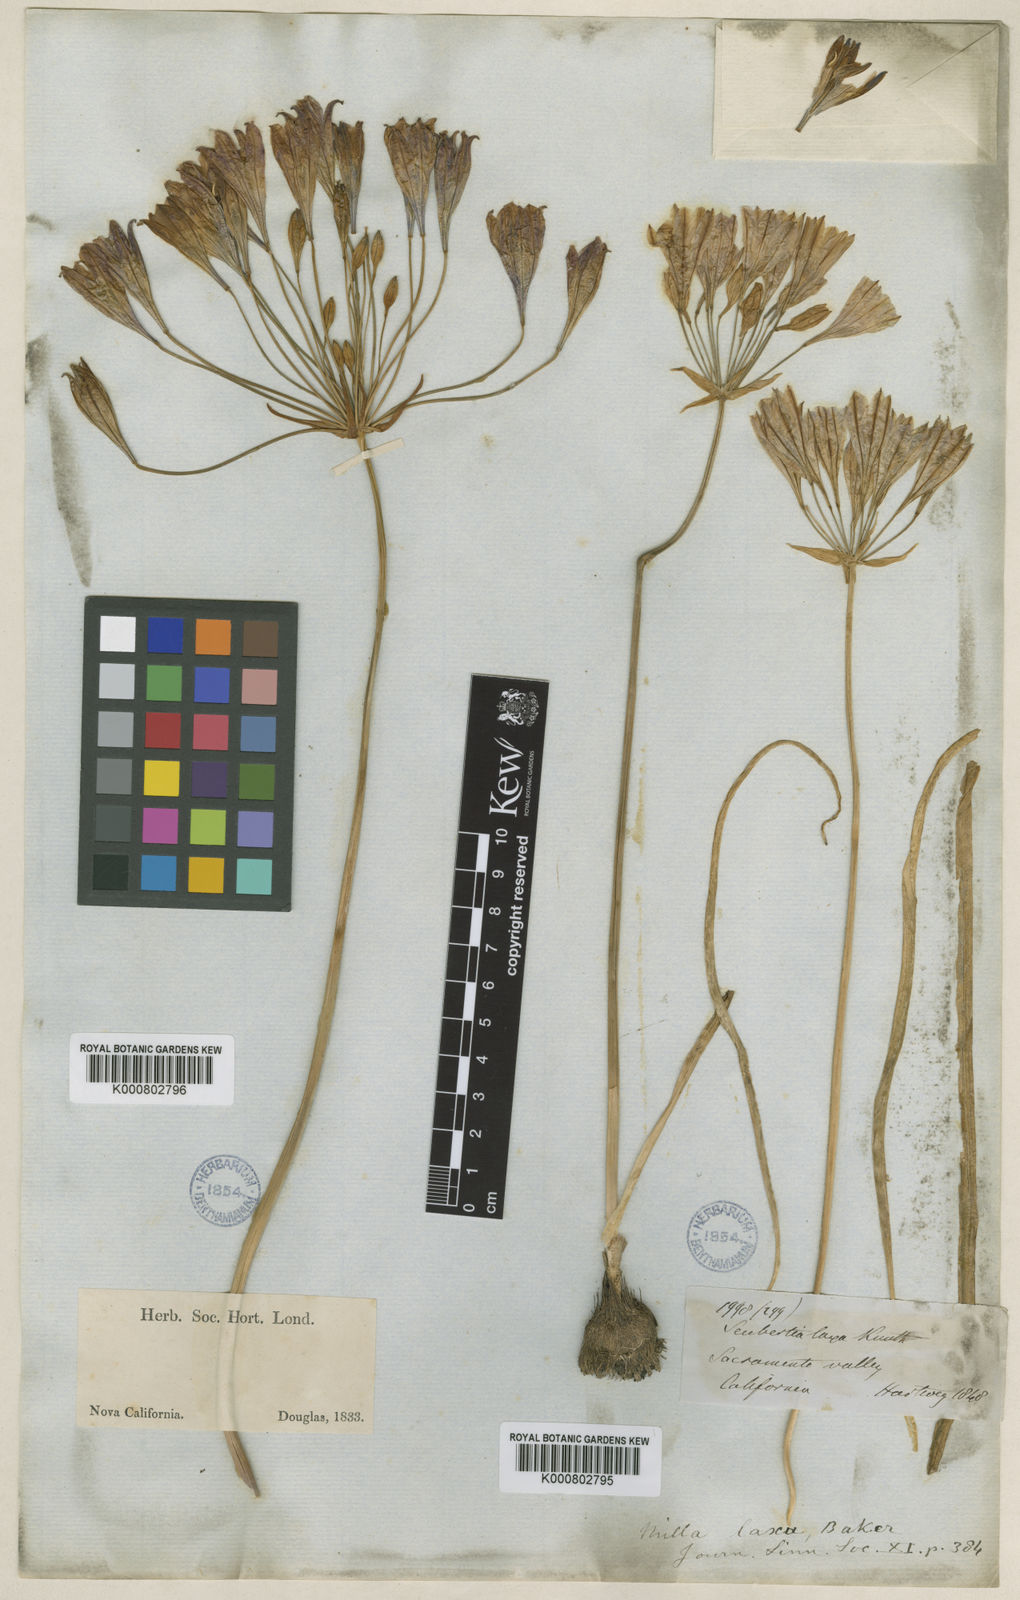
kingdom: Plantae
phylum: Tracheophyta
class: Liliopsida
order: Asparagales
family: Asparagaceae
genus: Triteleia
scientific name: Triteleia laxa
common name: Triplet-lily
